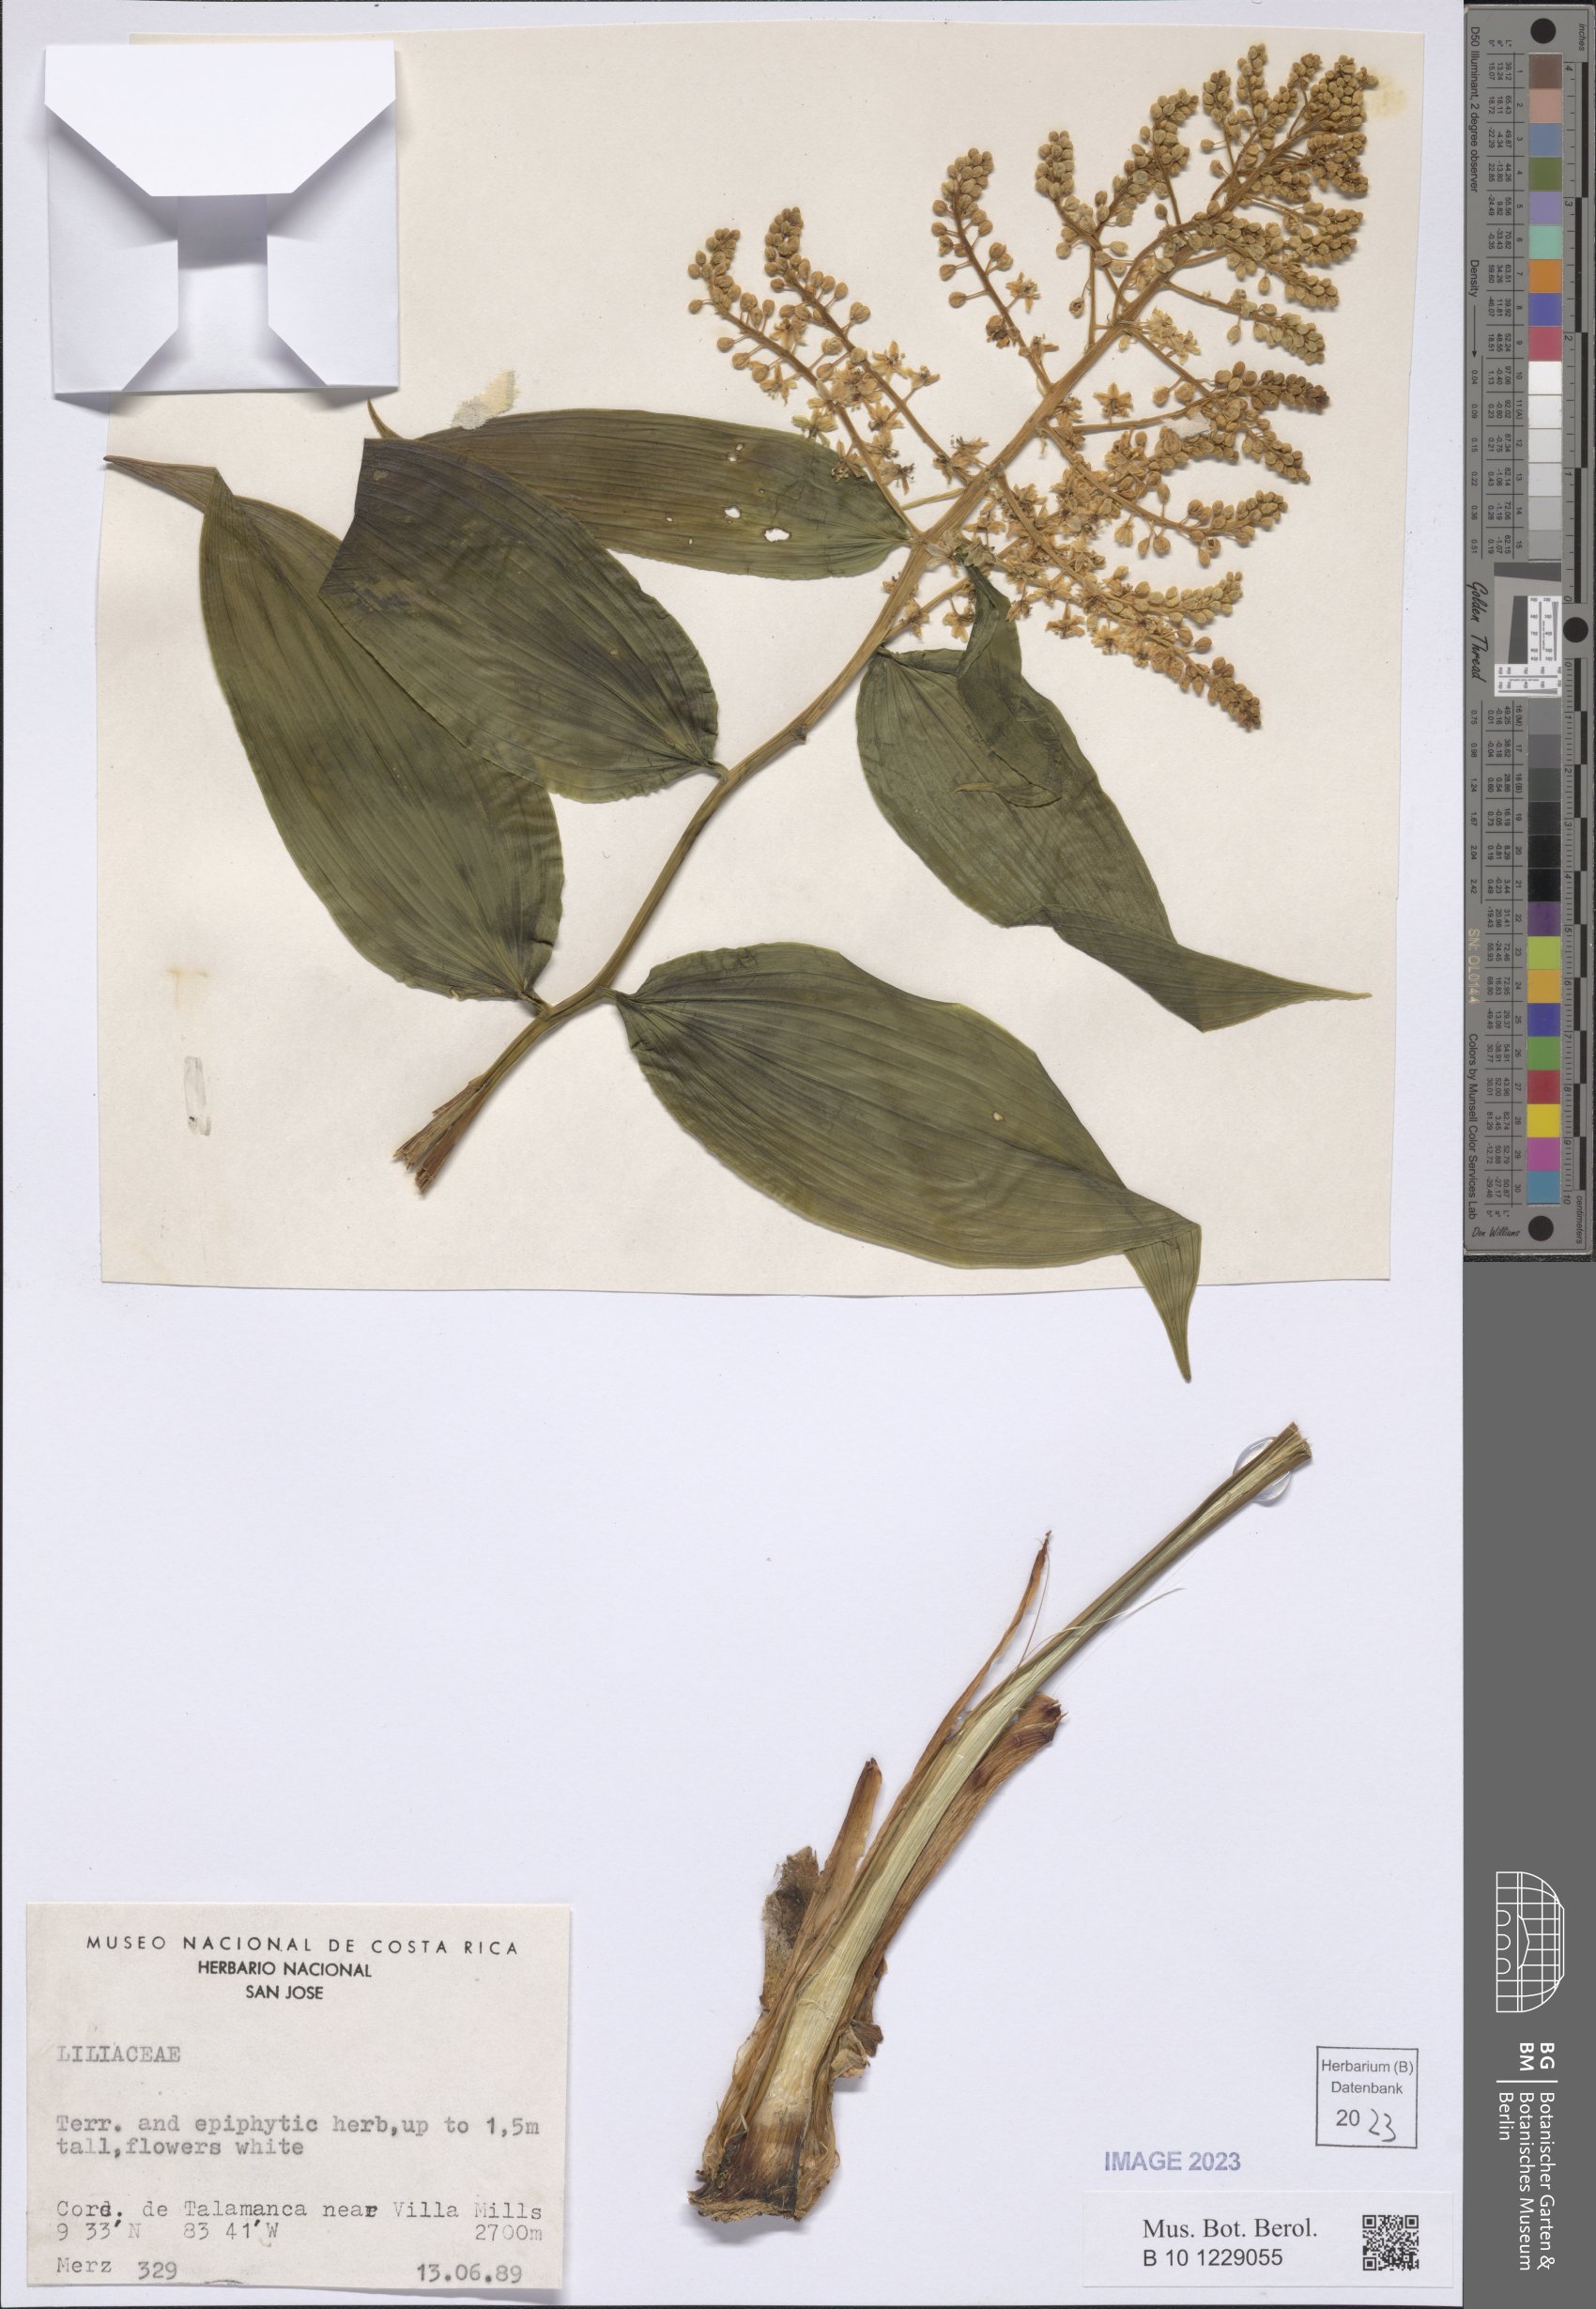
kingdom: Plantae
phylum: Tracheophyta
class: Liliopsida
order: Liliales
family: Liliaceae
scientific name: Liliaceae
